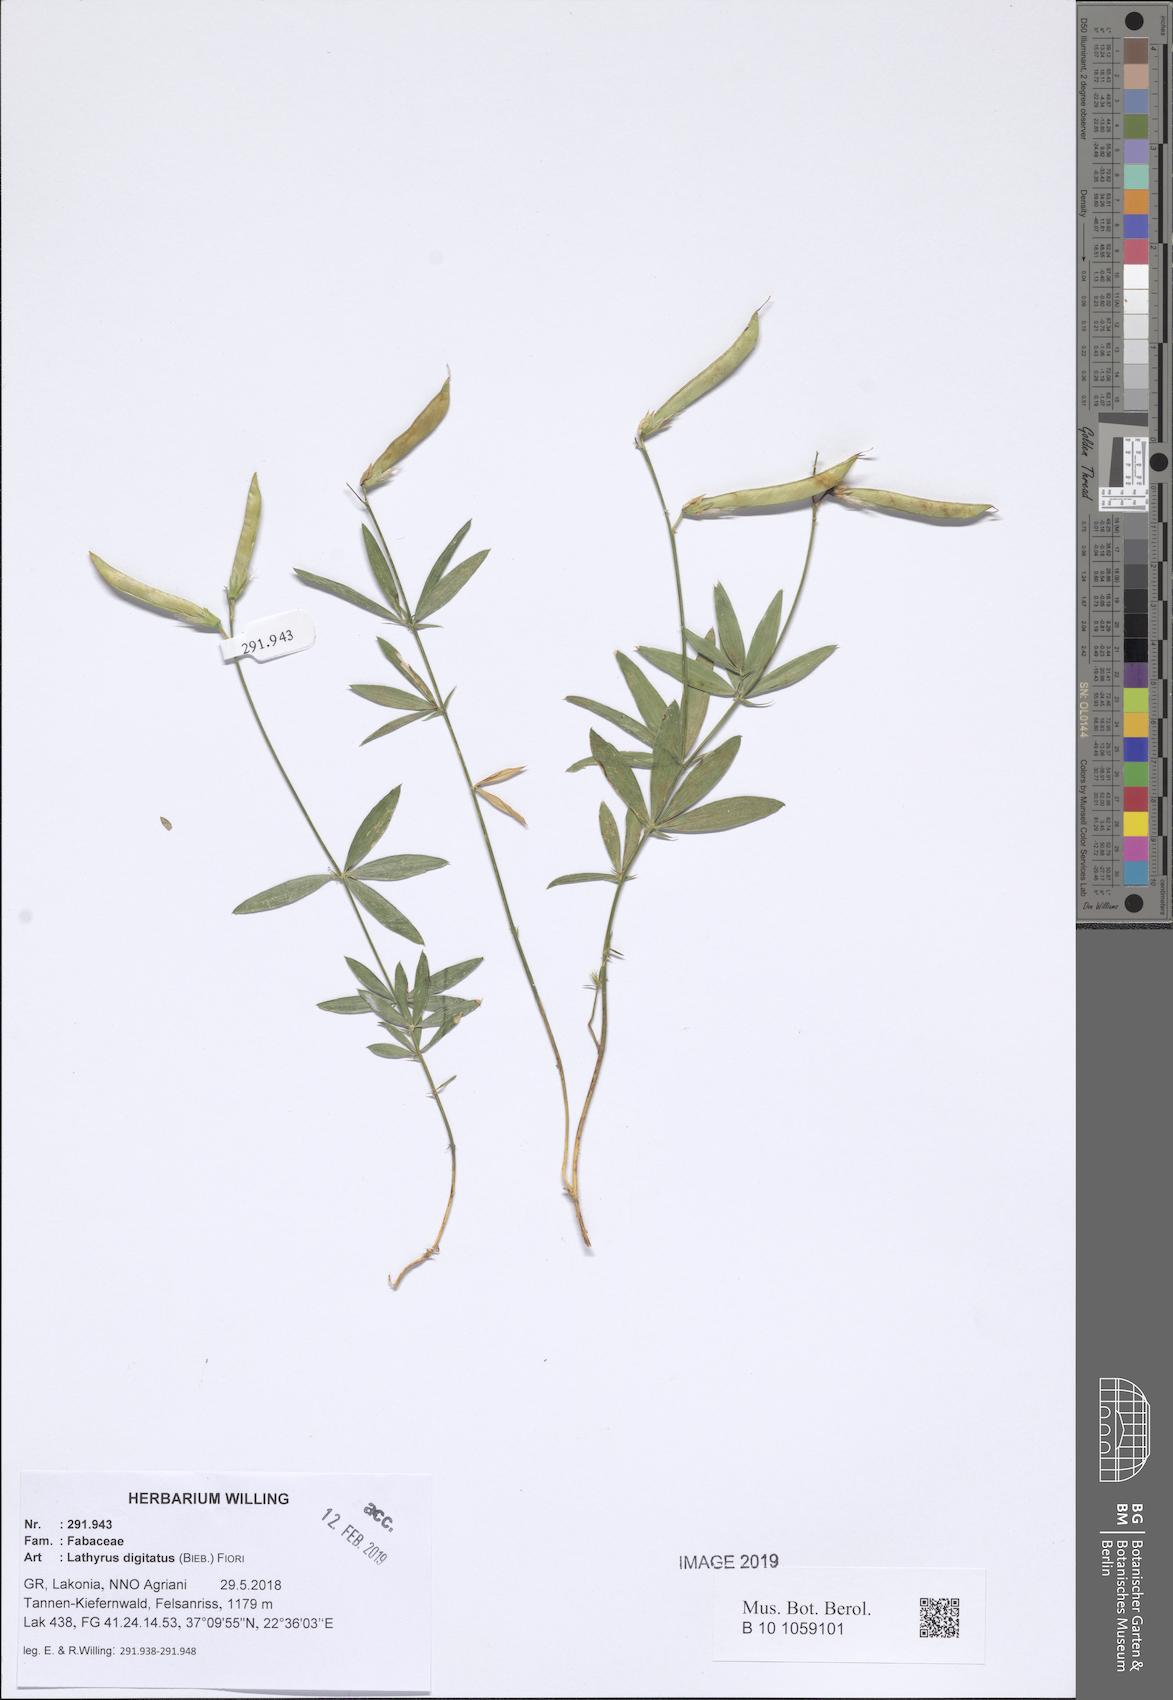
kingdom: Plantae
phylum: Tracheophyta
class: Magnoliopsida
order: Fabales
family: Fabaceae
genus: Lathyrus
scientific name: Lathyrus digitatus
